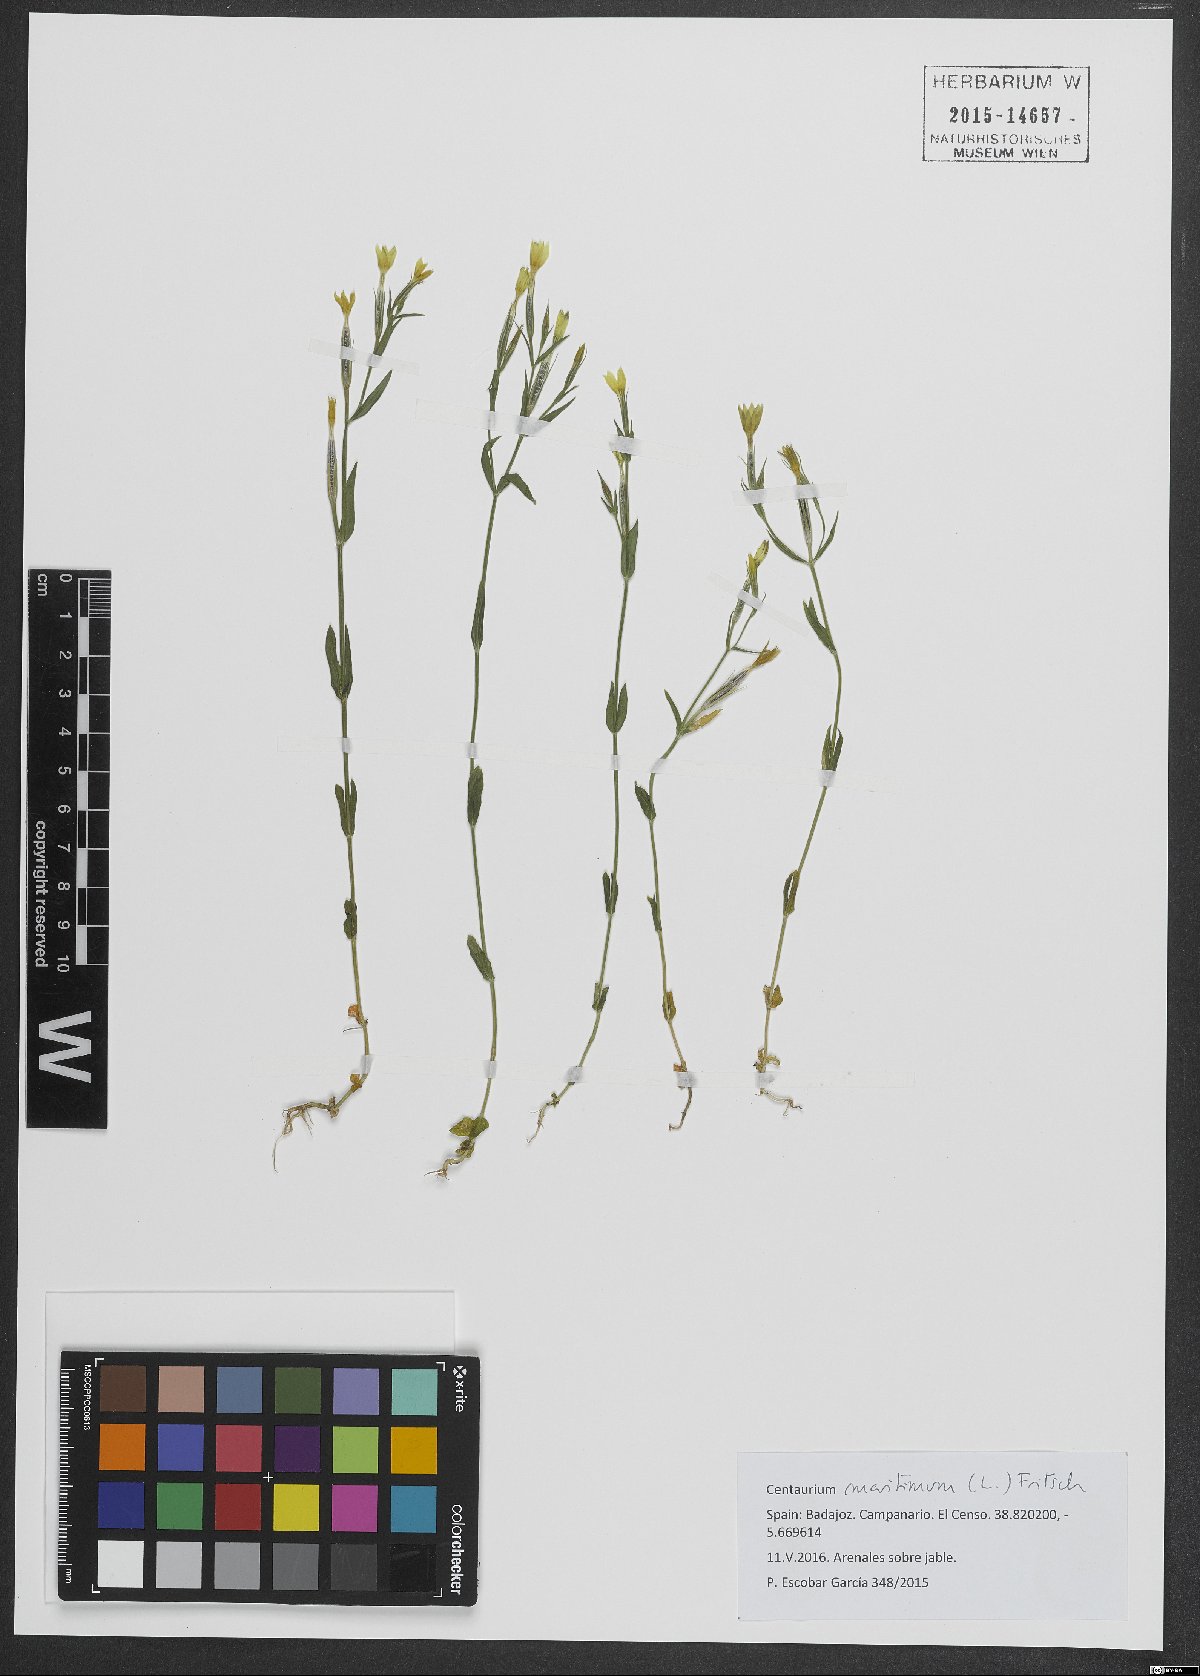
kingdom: Plantae
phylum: Tracheophyta
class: Magnoliopsida
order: Gentianales
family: Gentianaceae
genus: Centaurium
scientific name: Centaurium maritimum
